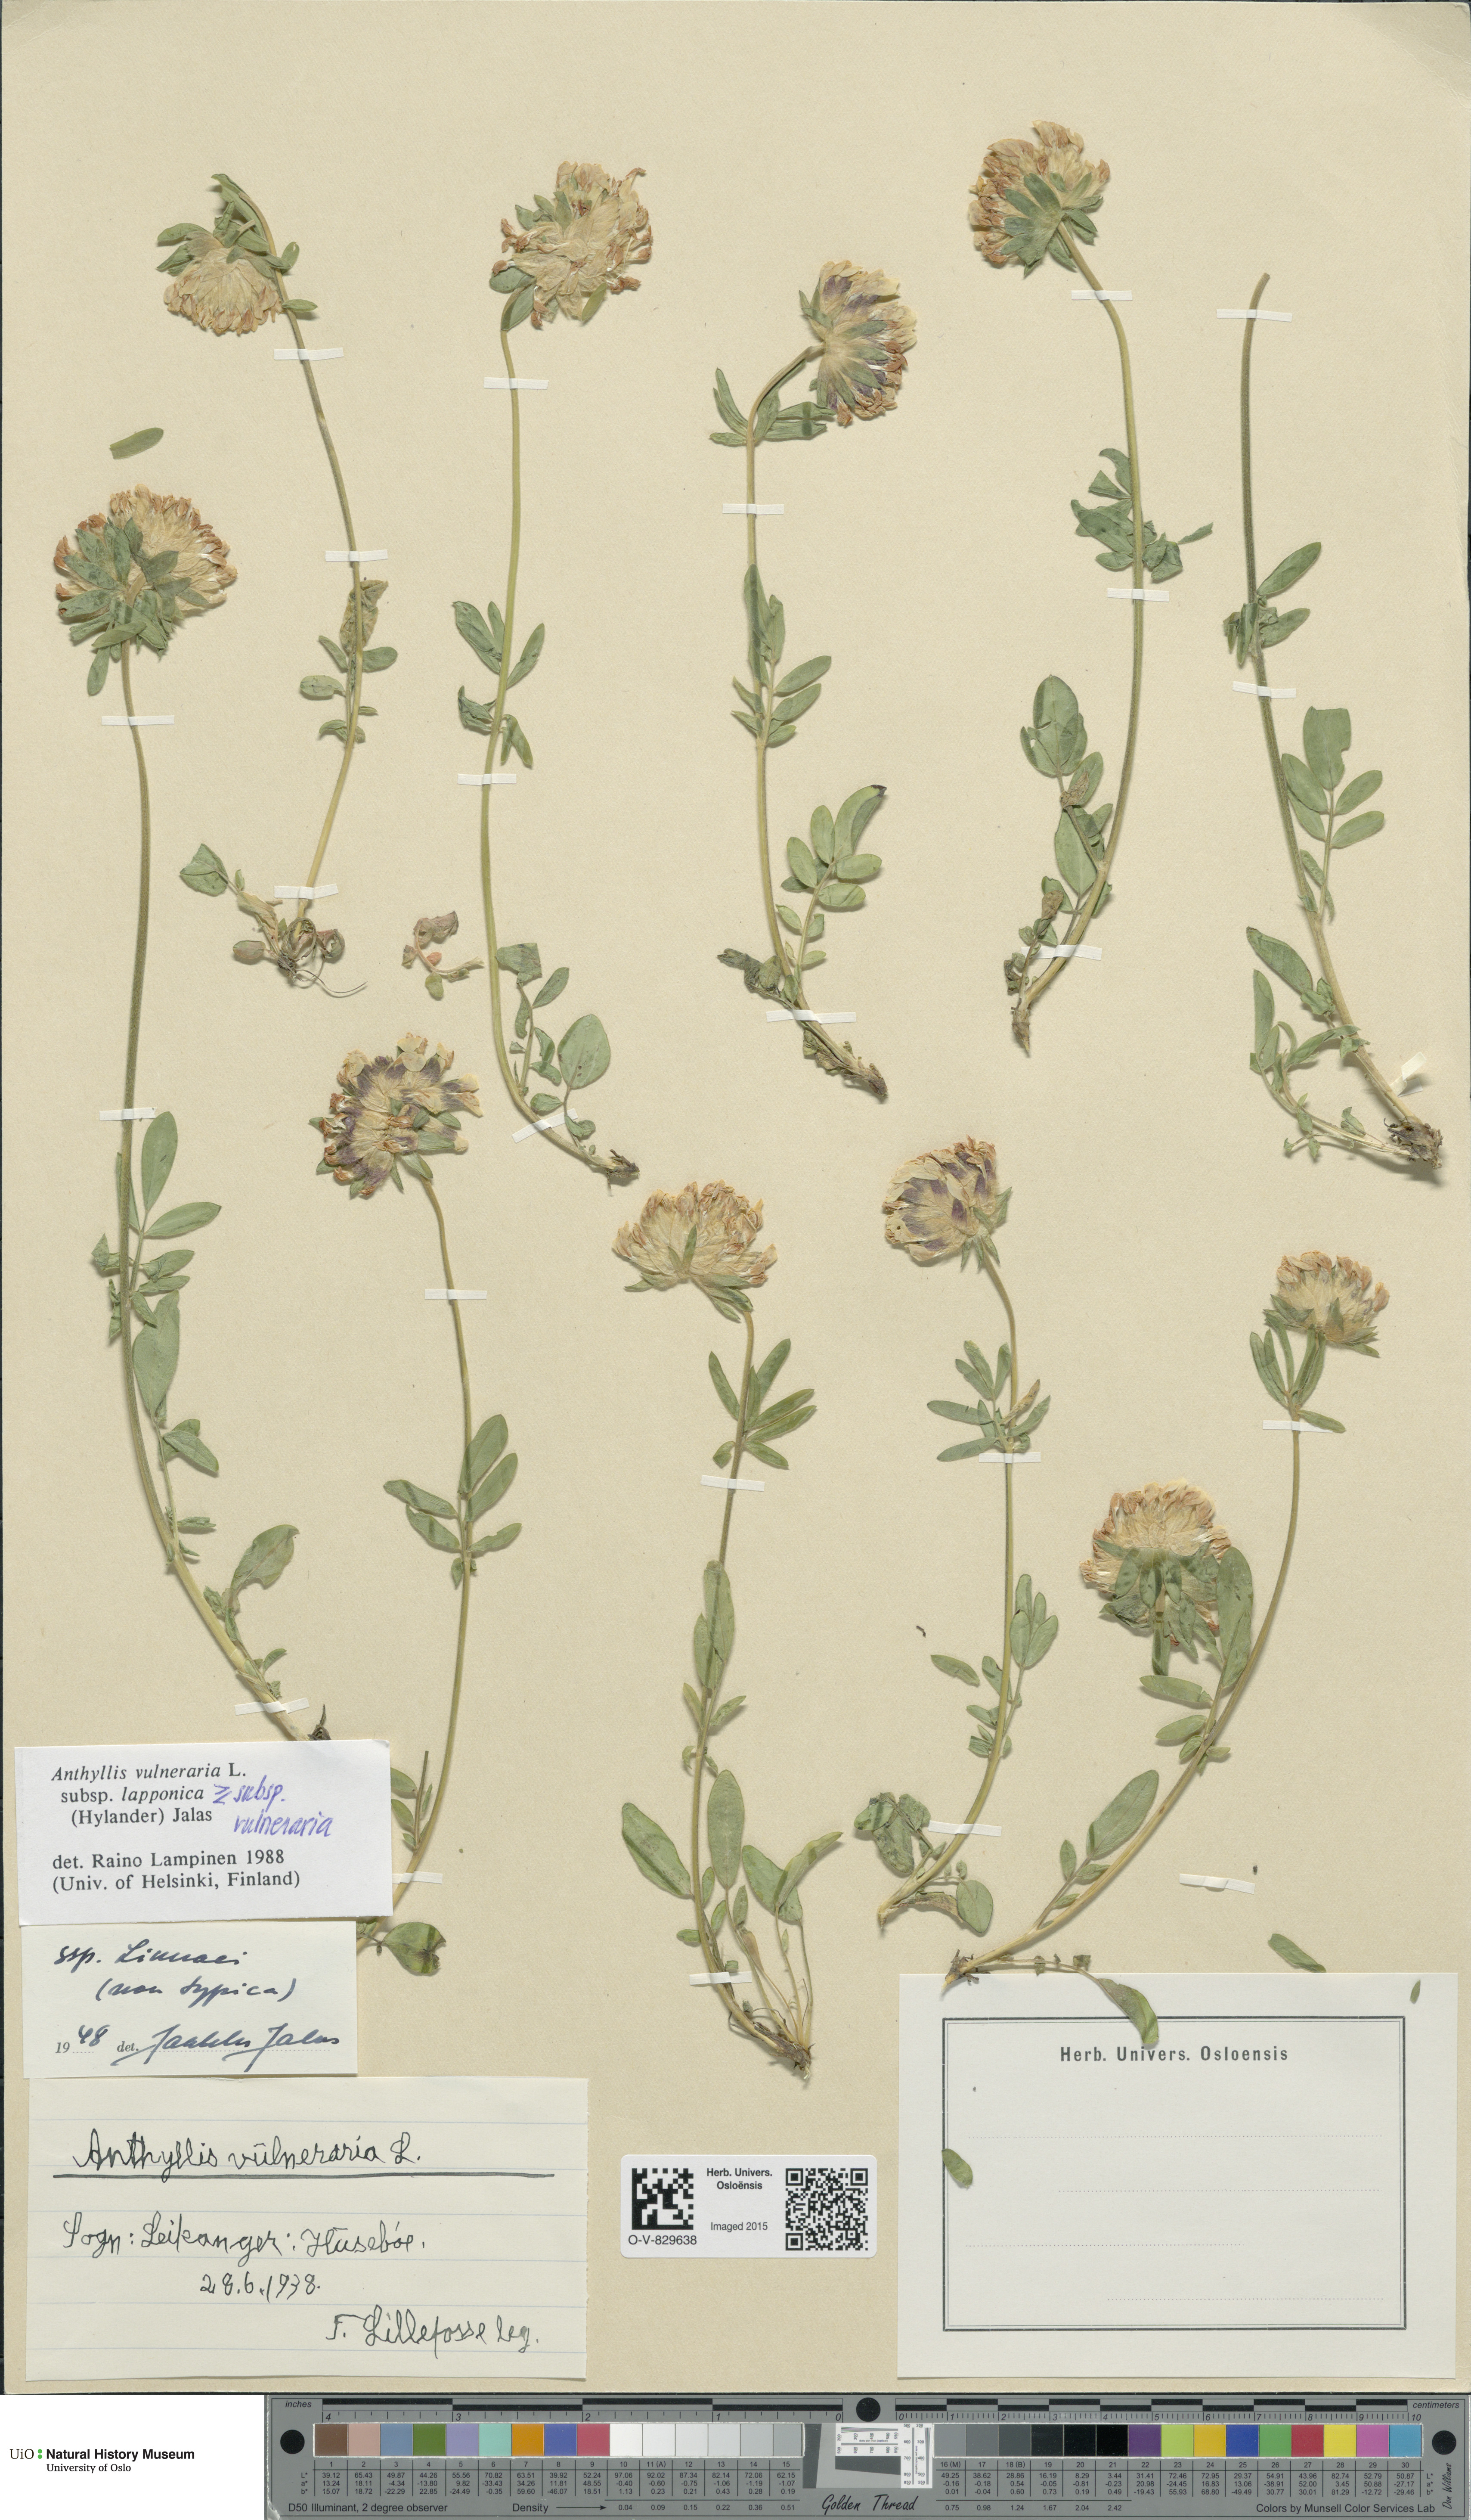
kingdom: Plantae
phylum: Tracheophyta
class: Magnoliopsida
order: Fabales
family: Fabaceae
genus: Anthyllis
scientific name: Anthyllis
